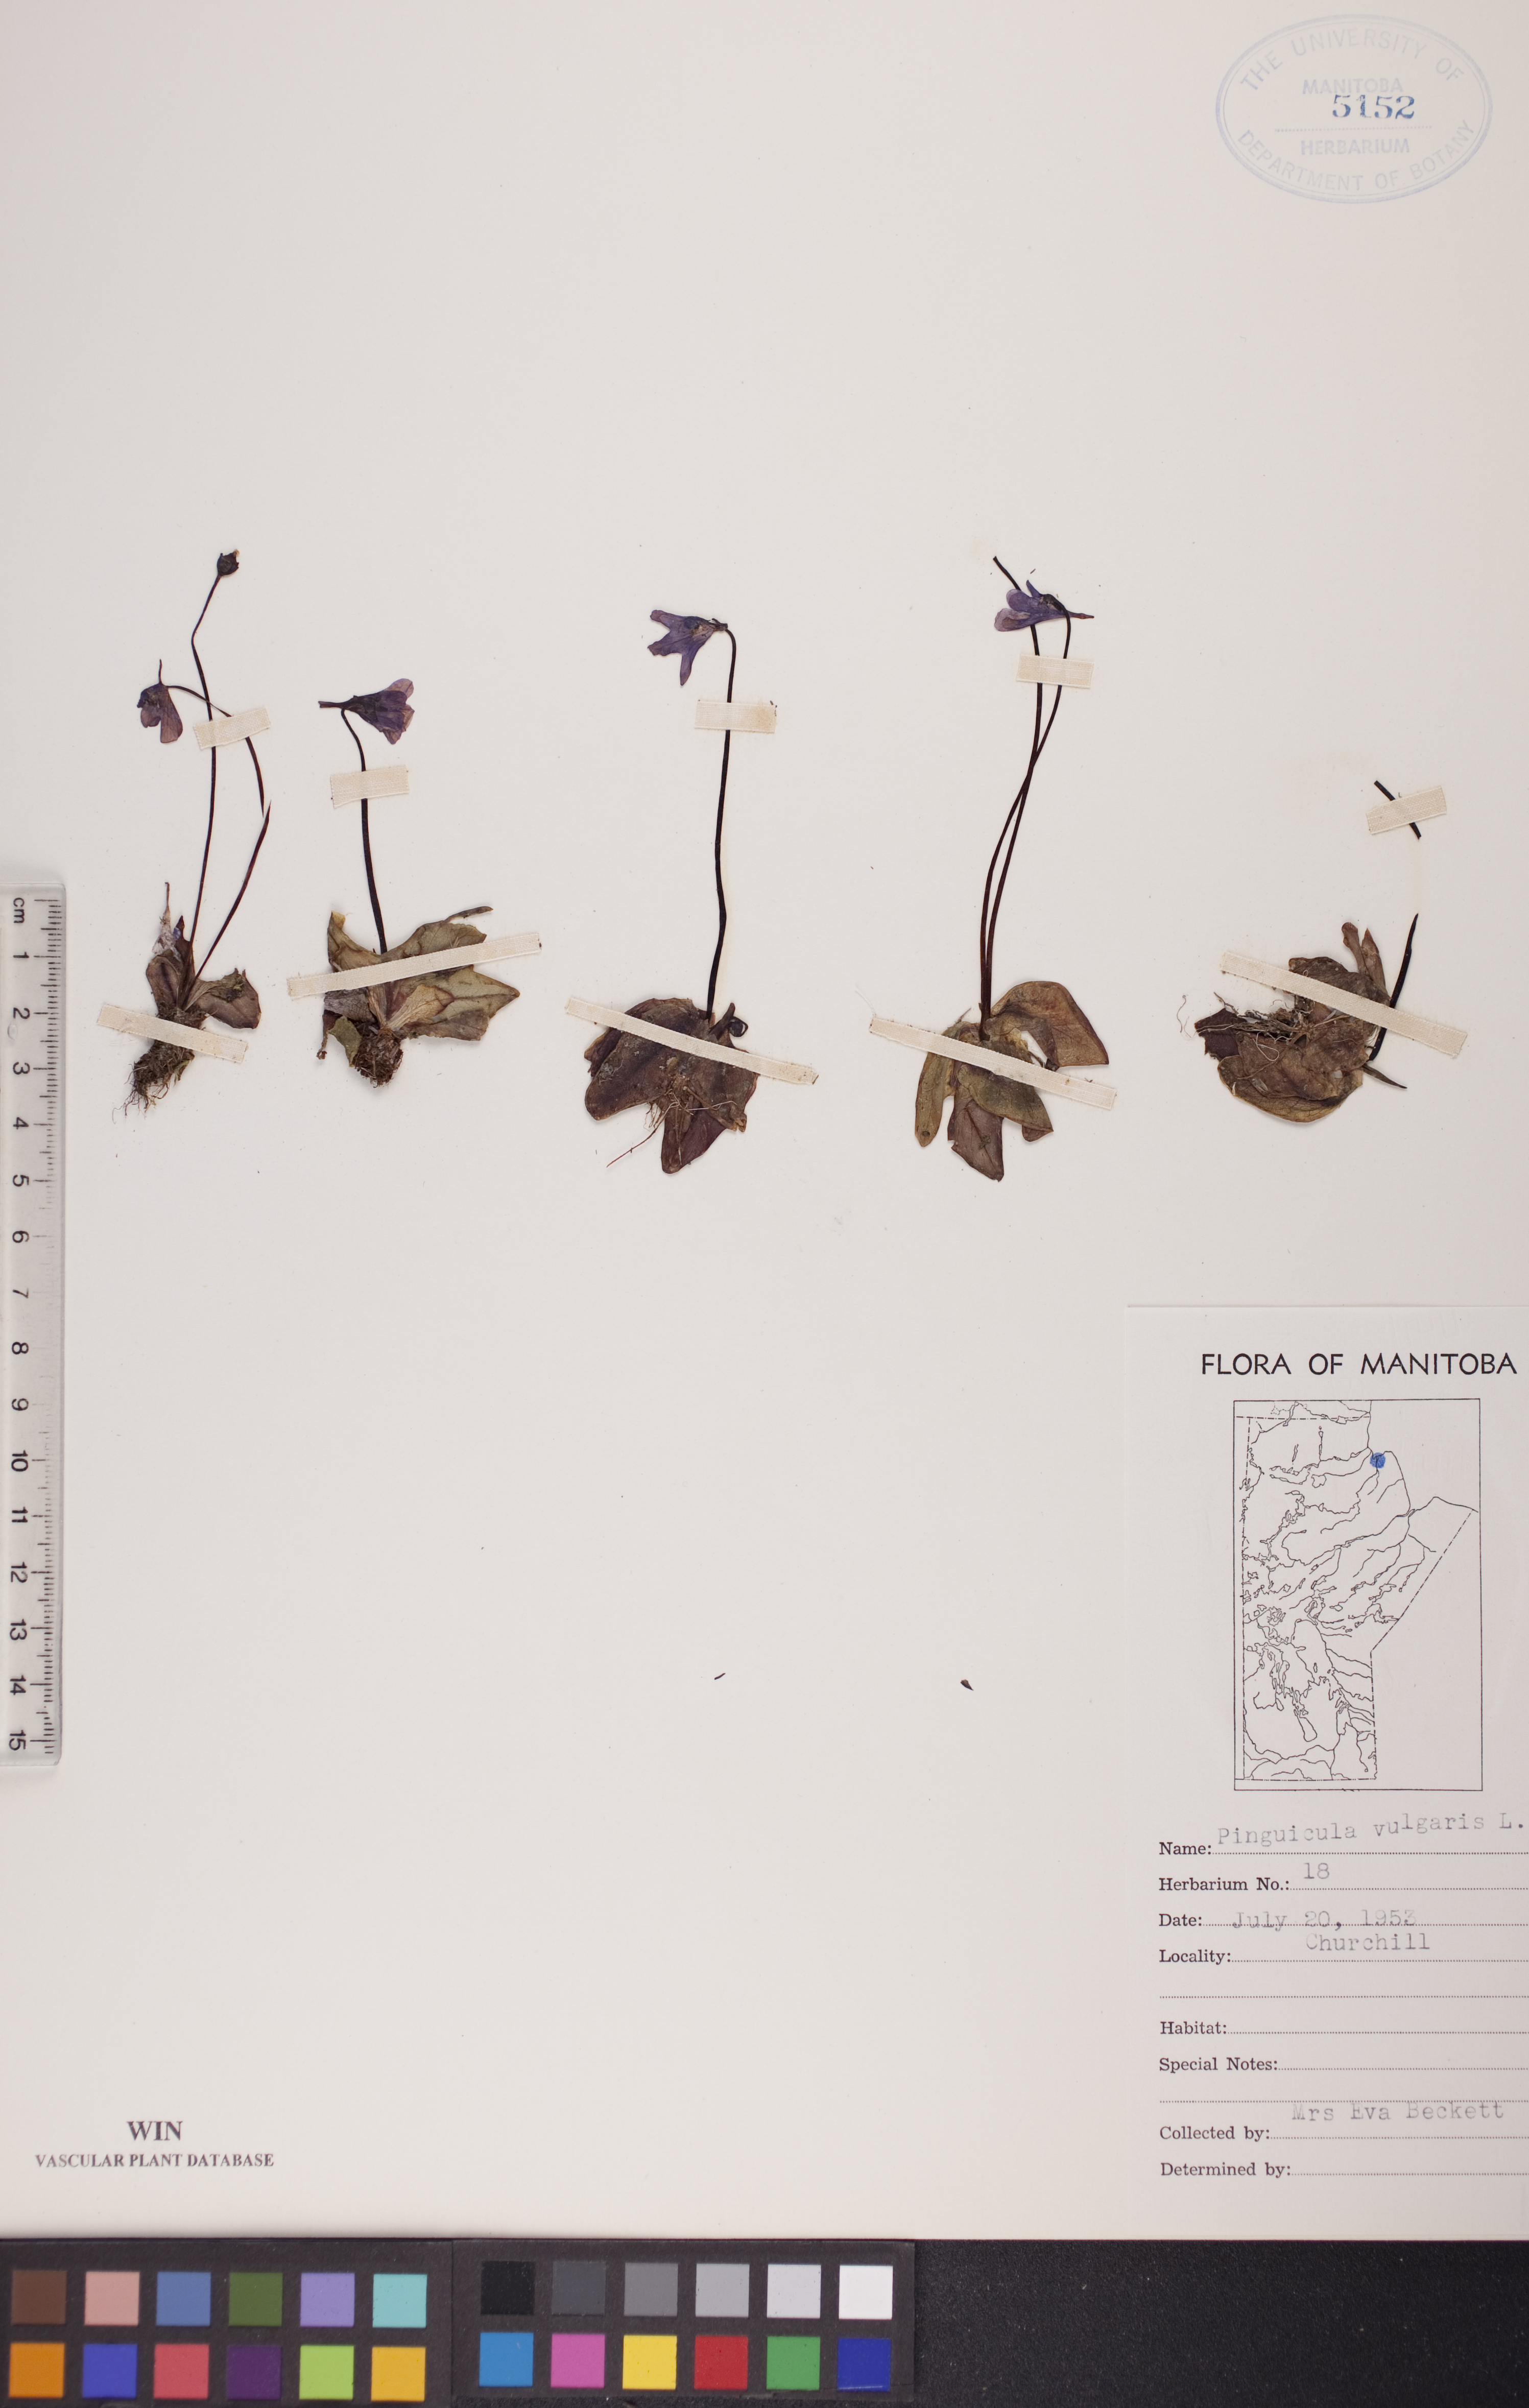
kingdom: Plantae
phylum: Tracheophyta
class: Magnoliopsida
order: Lamiales
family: Lentibulariaceae
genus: Pinguicula
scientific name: Pinguicula vulgaris
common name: Common butterwort
